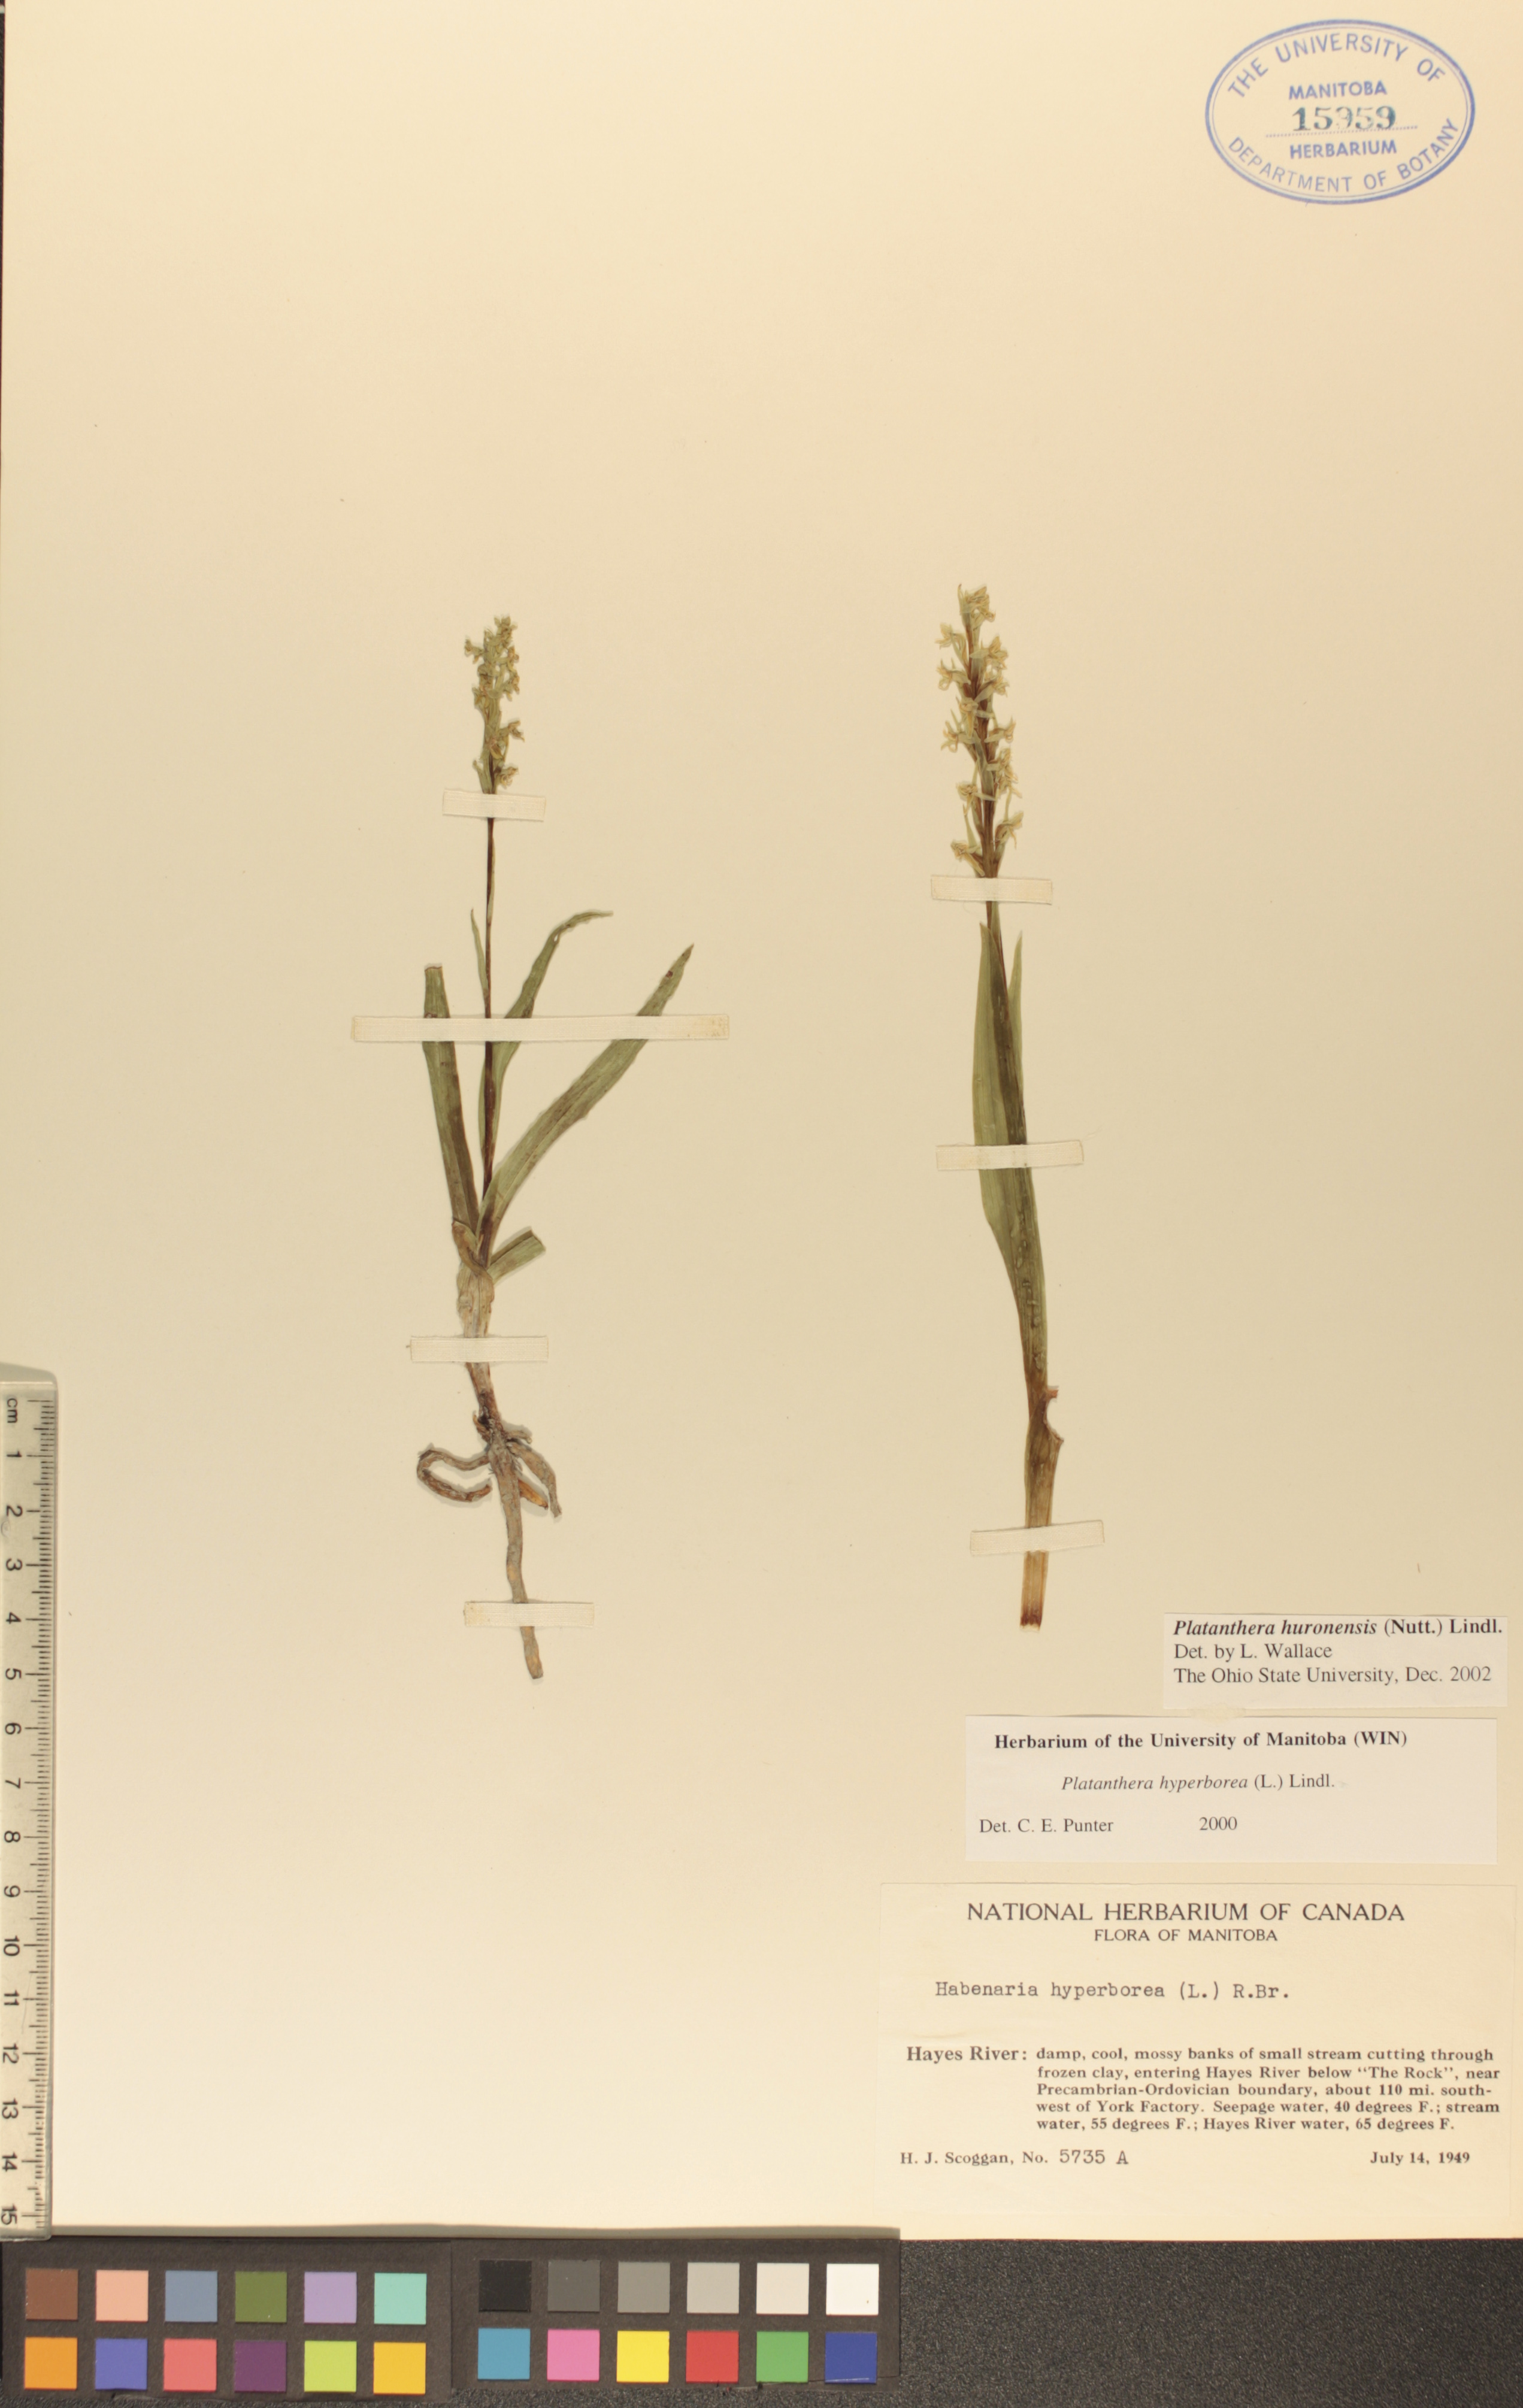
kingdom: Plantae
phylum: Tracheophyta
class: Liliopsida
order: Asparagales
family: Orchidaceae
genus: Platanthera
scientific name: Platanthera huronensis
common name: Fragrant green orchid
